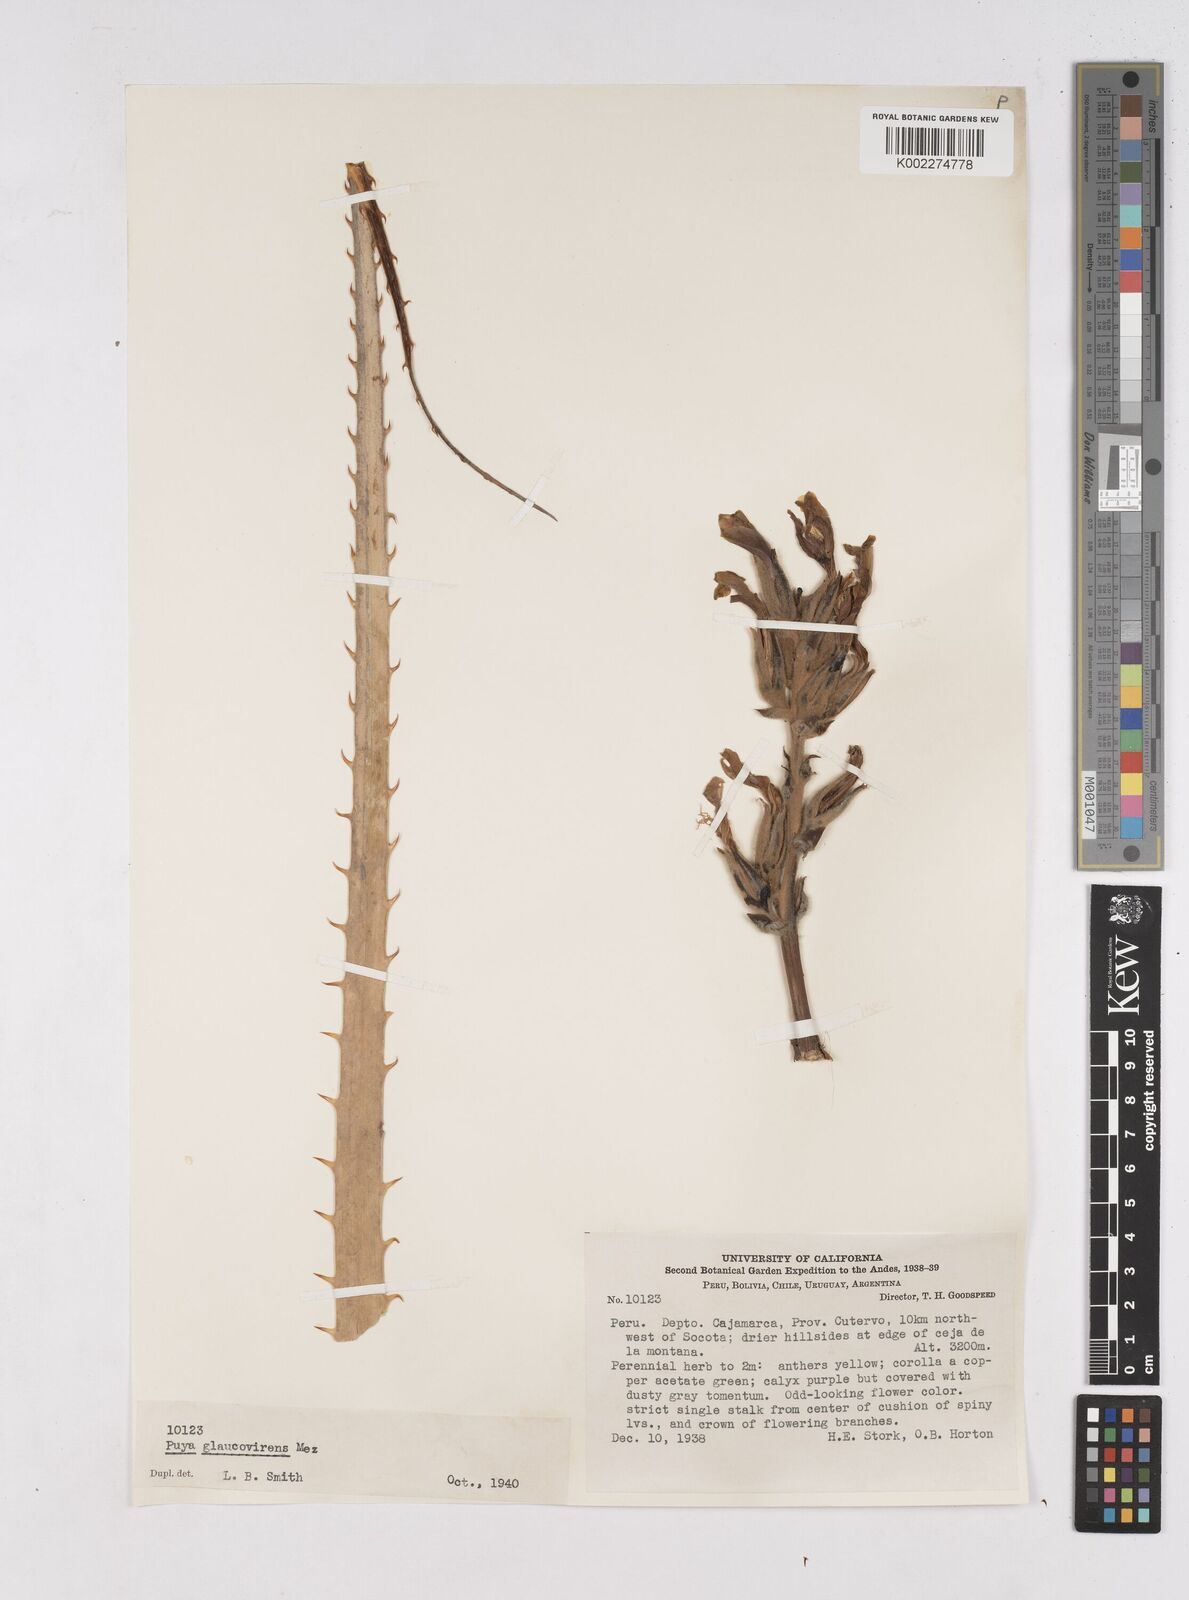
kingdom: Plantae
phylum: Tracheophyta
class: Liliopsida
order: Poales
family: Bromeliaceae
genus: Puya
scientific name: Puya glaucovirens
